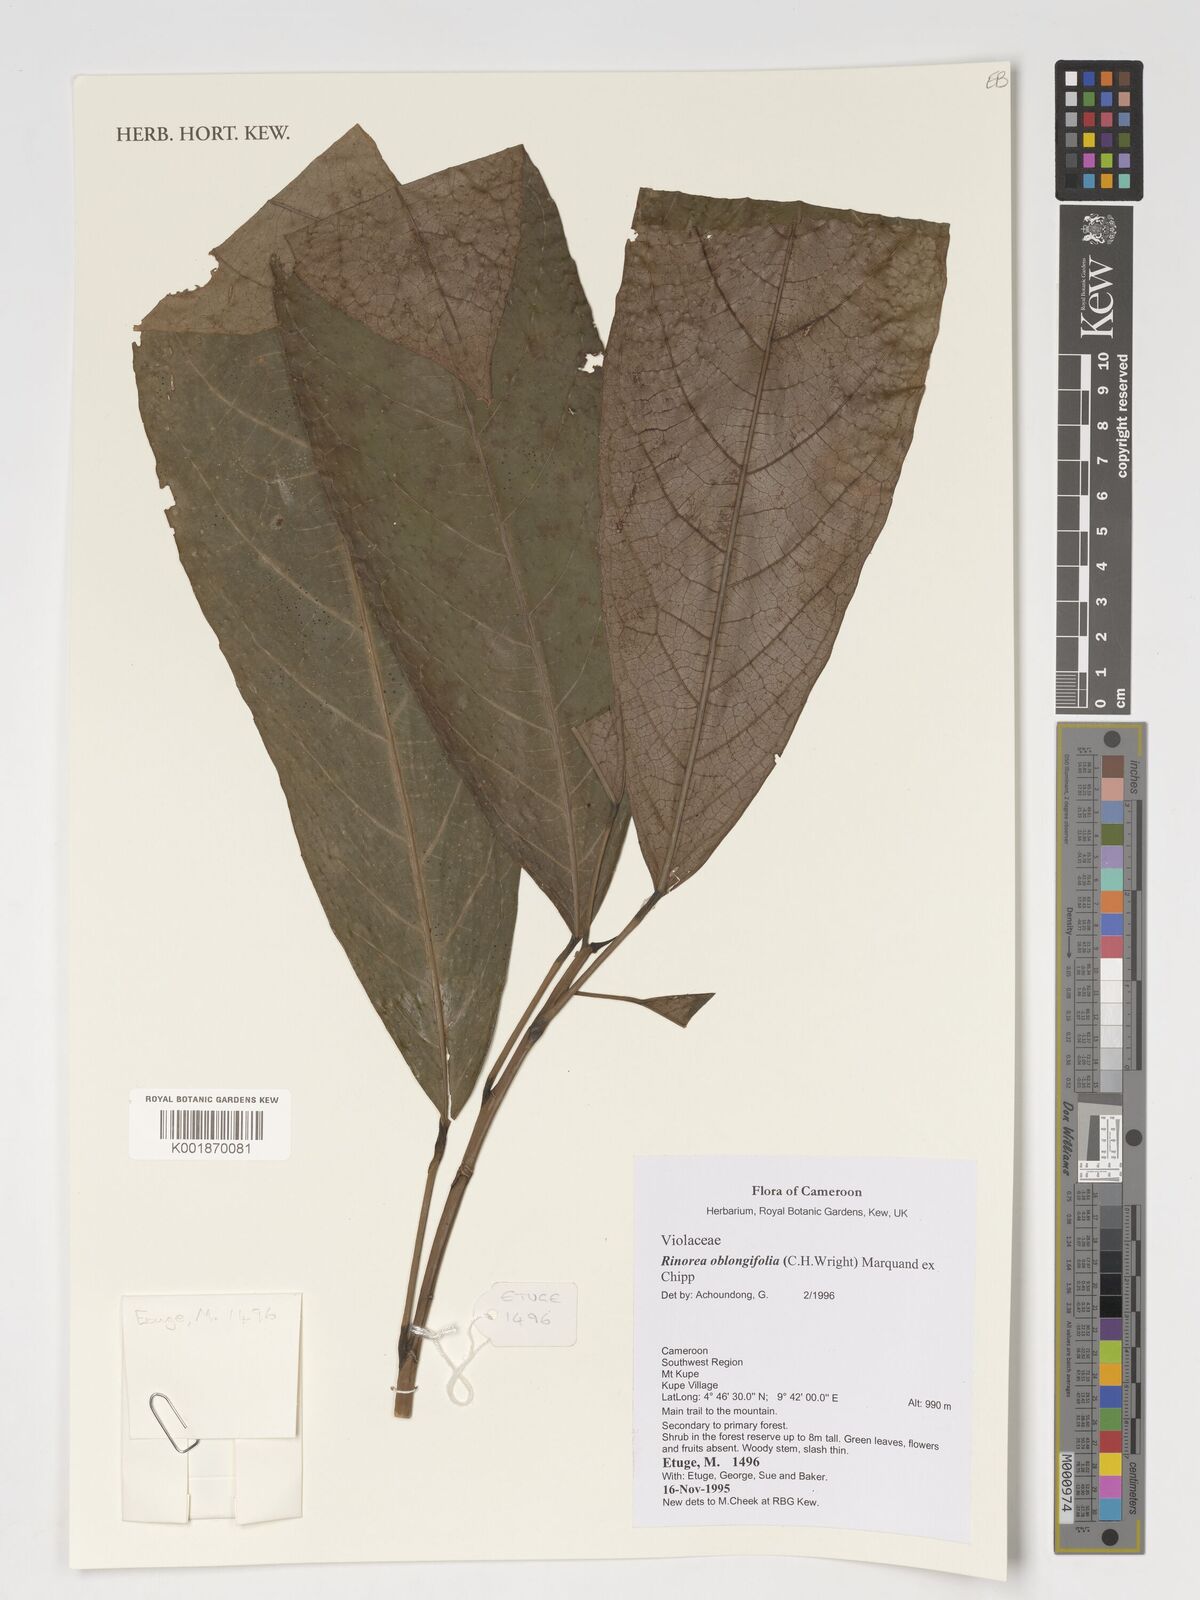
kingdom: Plantae
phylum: Tracheophyta
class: Magnoliopsida
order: Apiales
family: Pittosporaceae
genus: Marianthus
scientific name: Marianthus coeruleopunctatus
